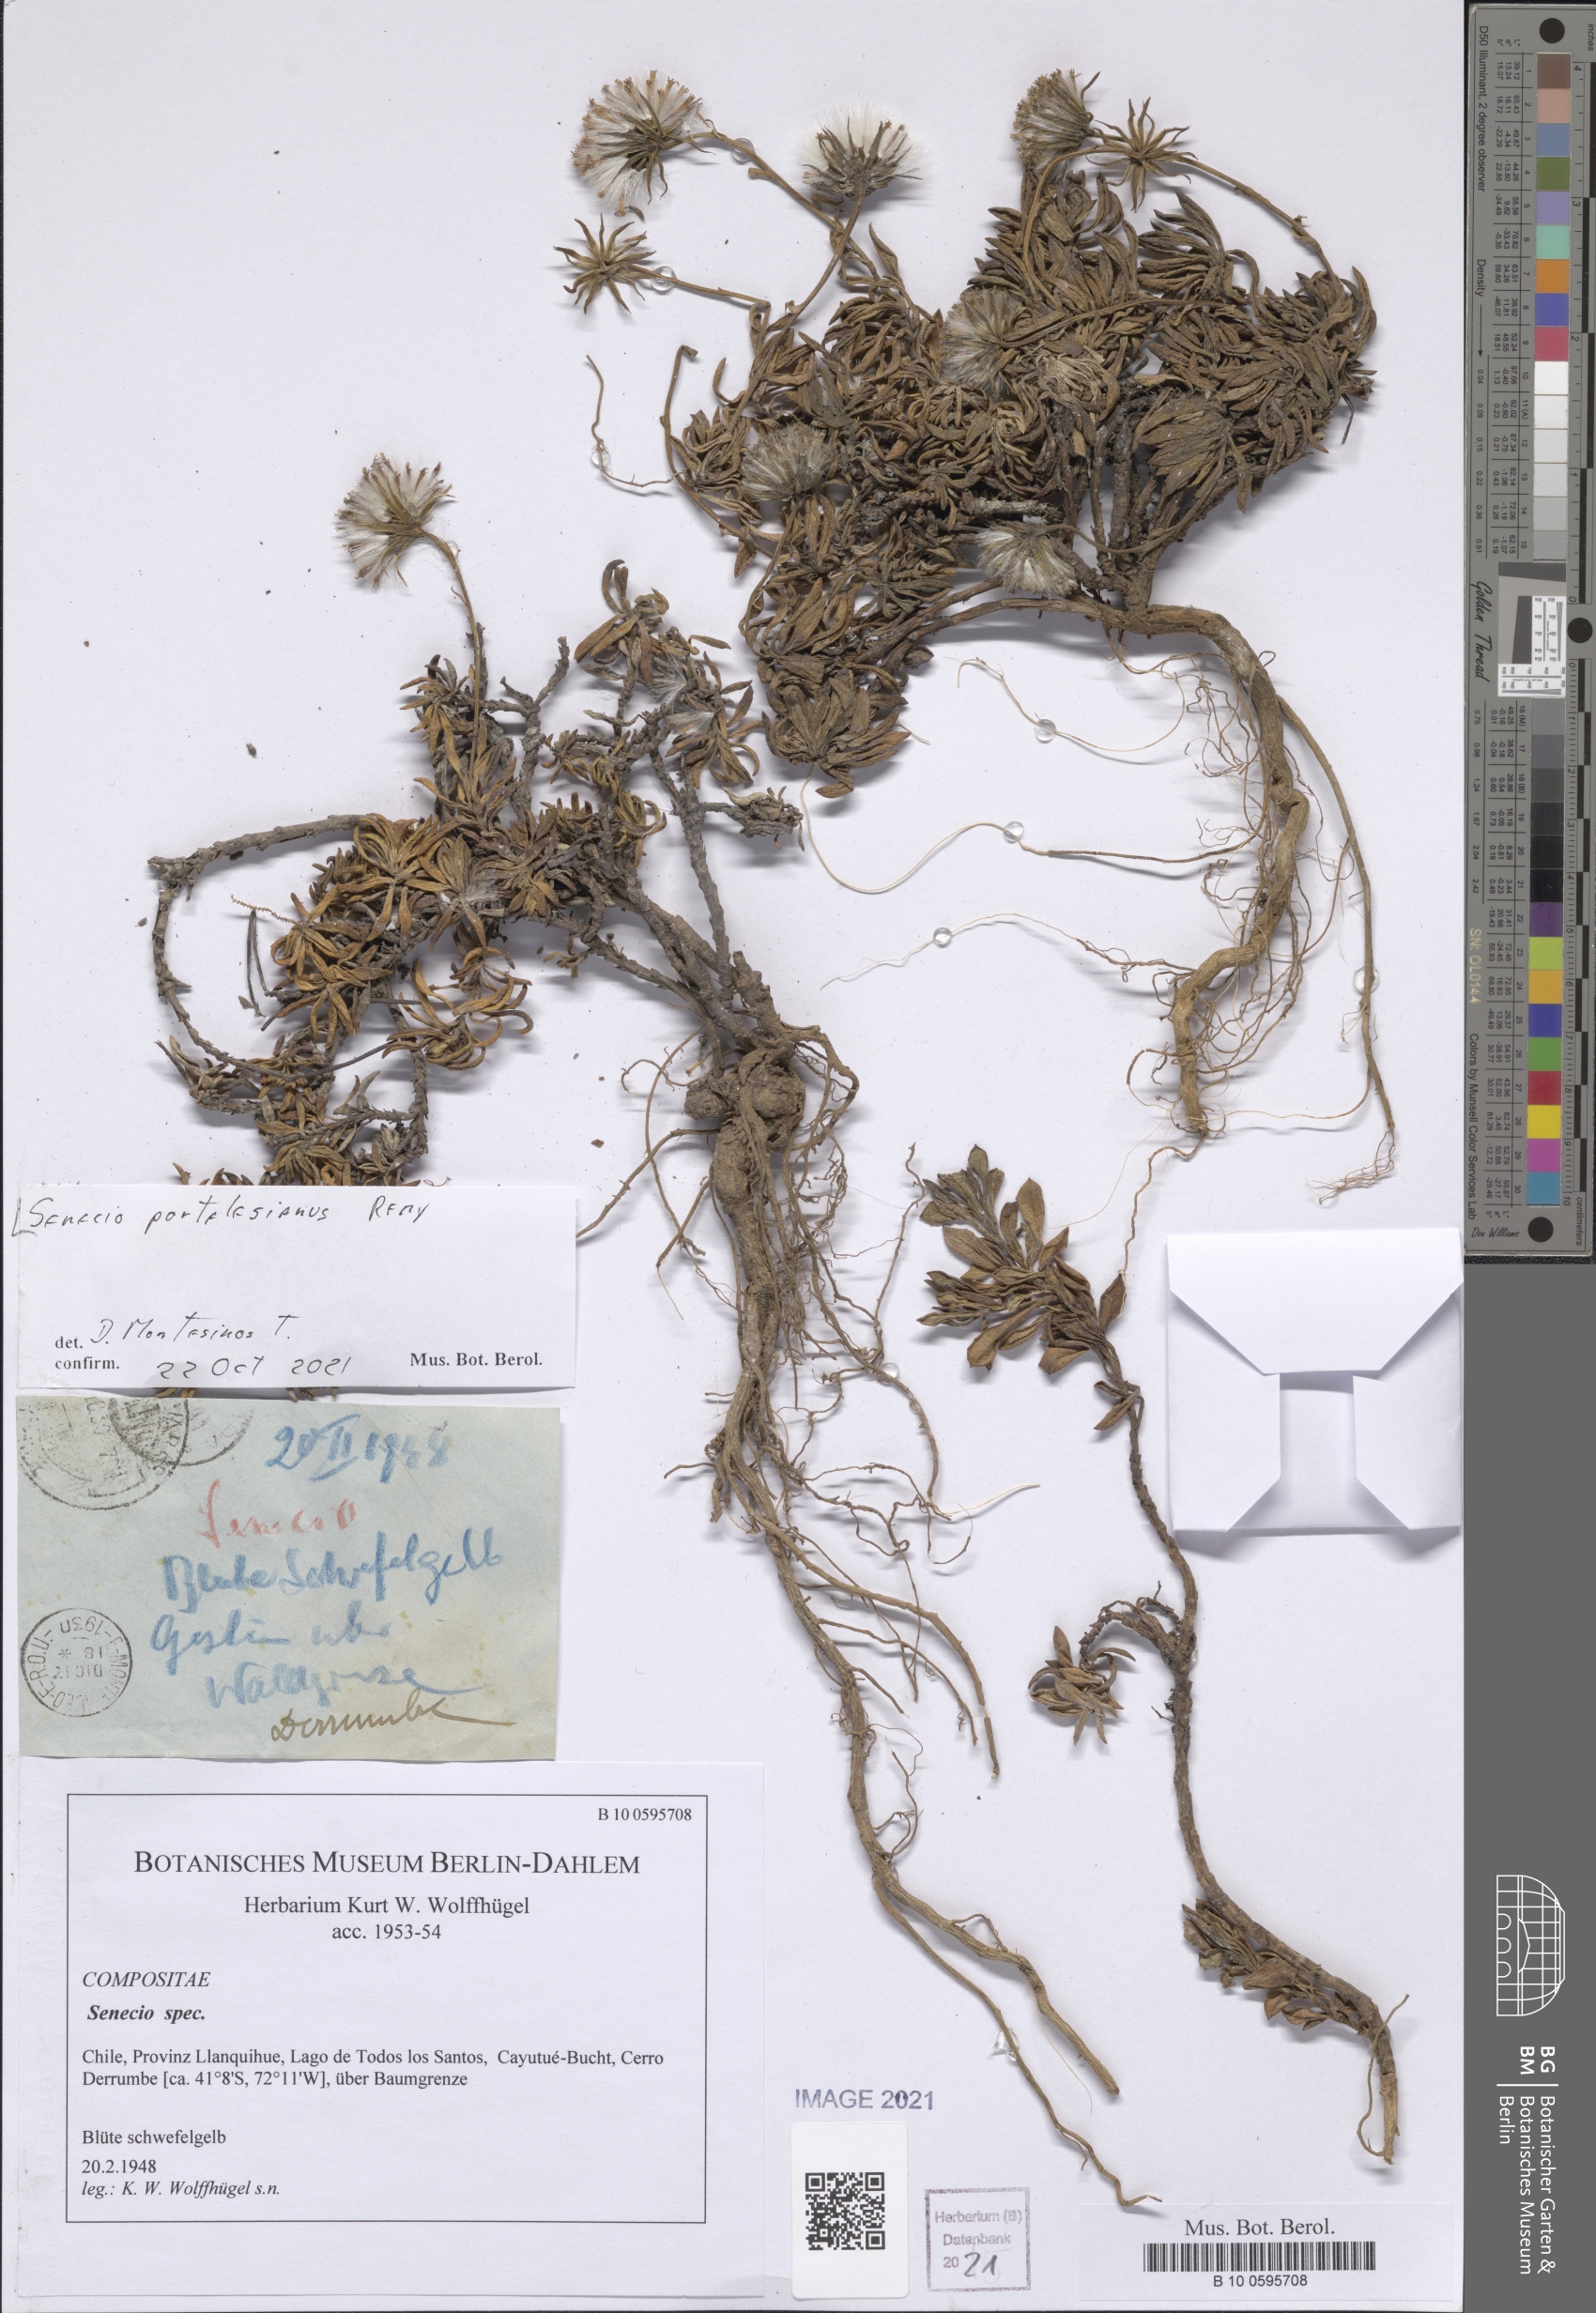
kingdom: Plantae
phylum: Tracheophyta
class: Magnoliopsida
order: Asterales
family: Asteraceae
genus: Senecio
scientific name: Senecio portalesianus
